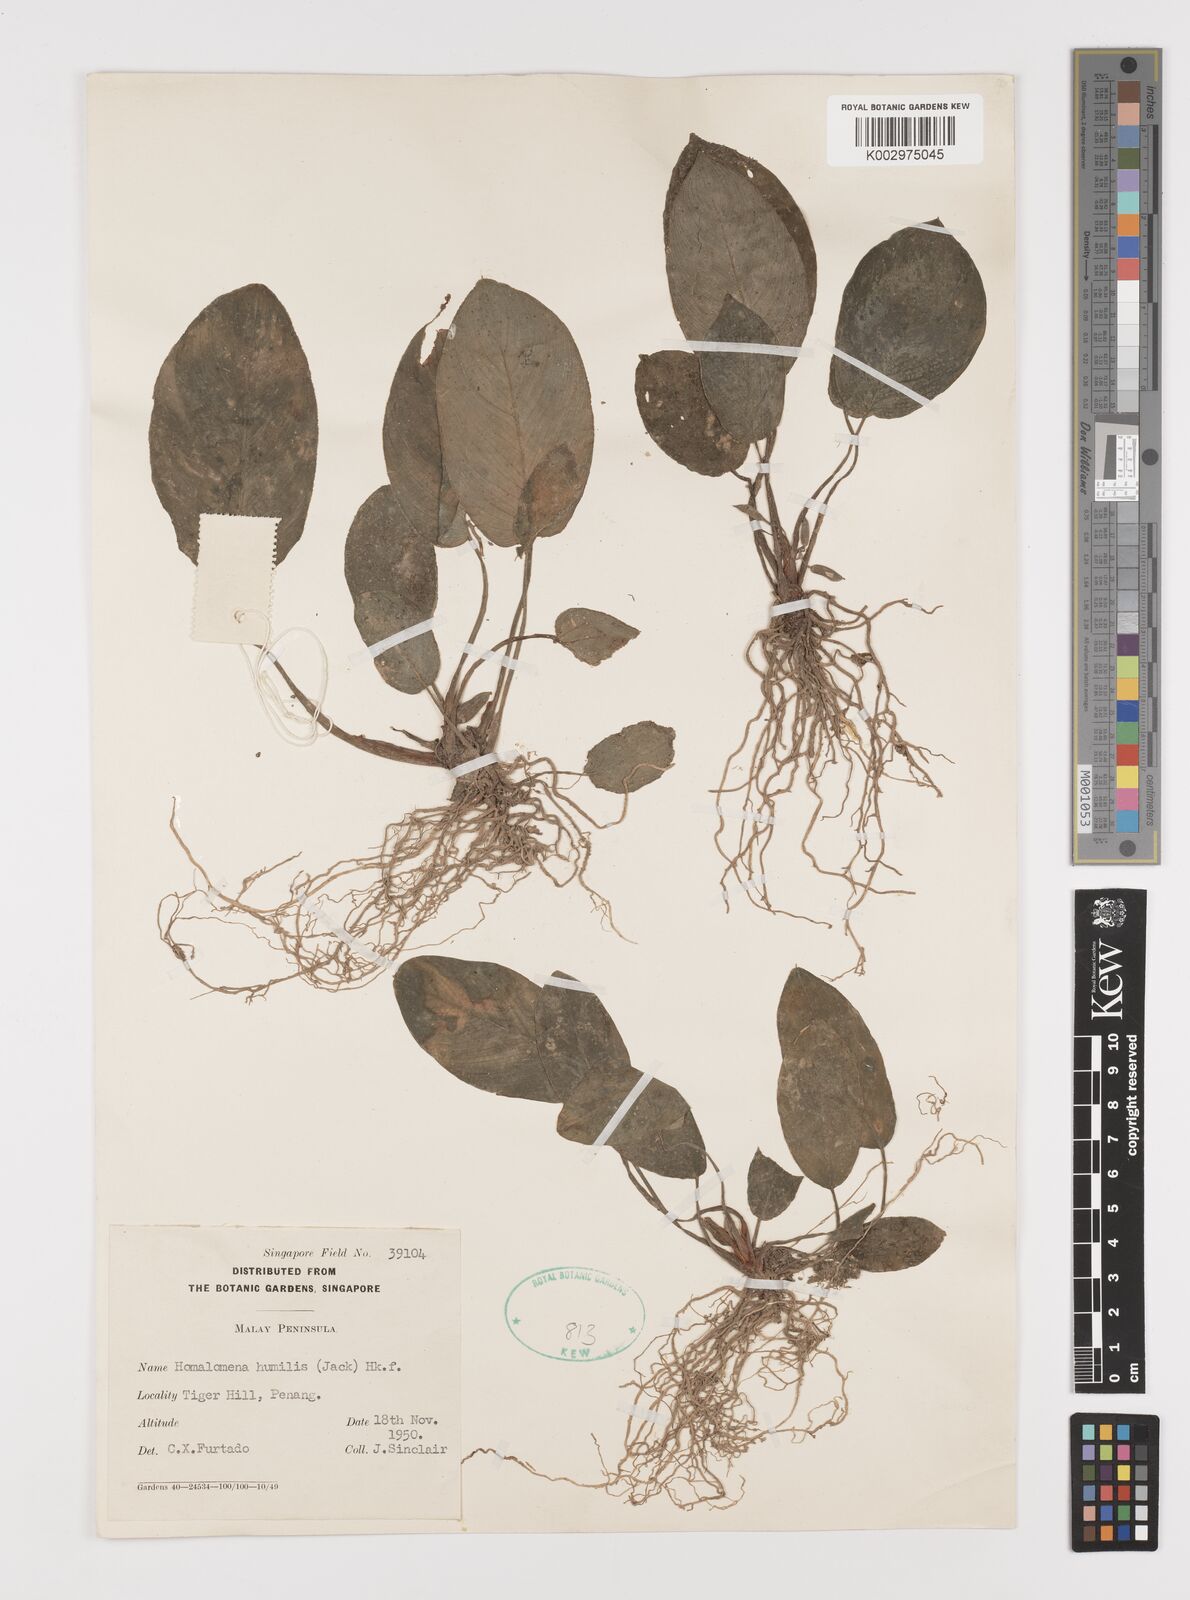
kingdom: Plantae
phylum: Tracheophyta
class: Liliopsida
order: Alismatales
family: Araceae
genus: Homalomena
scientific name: Homalomena humilis
